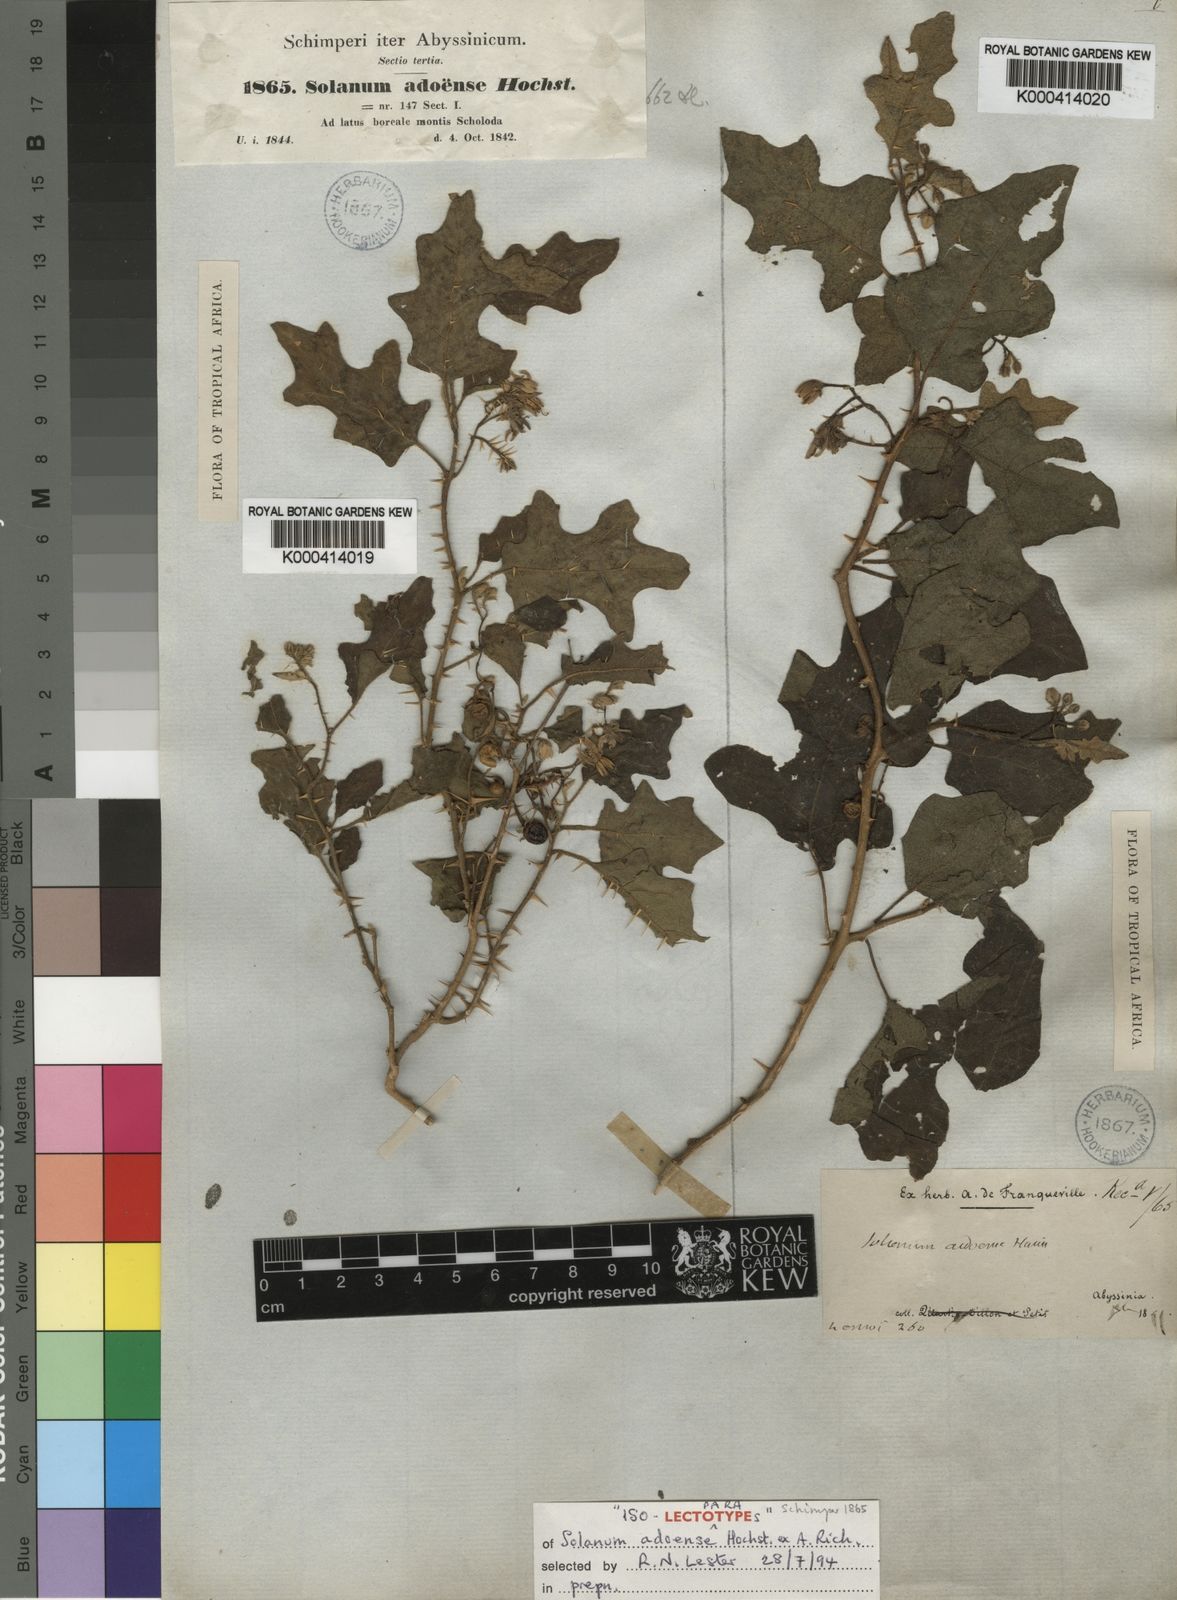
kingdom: Plantae
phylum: Tracheophyta
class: Magnoliopsida
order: Solanales
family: Solanaceae
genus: Solanum
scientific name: Solanum violaceum
